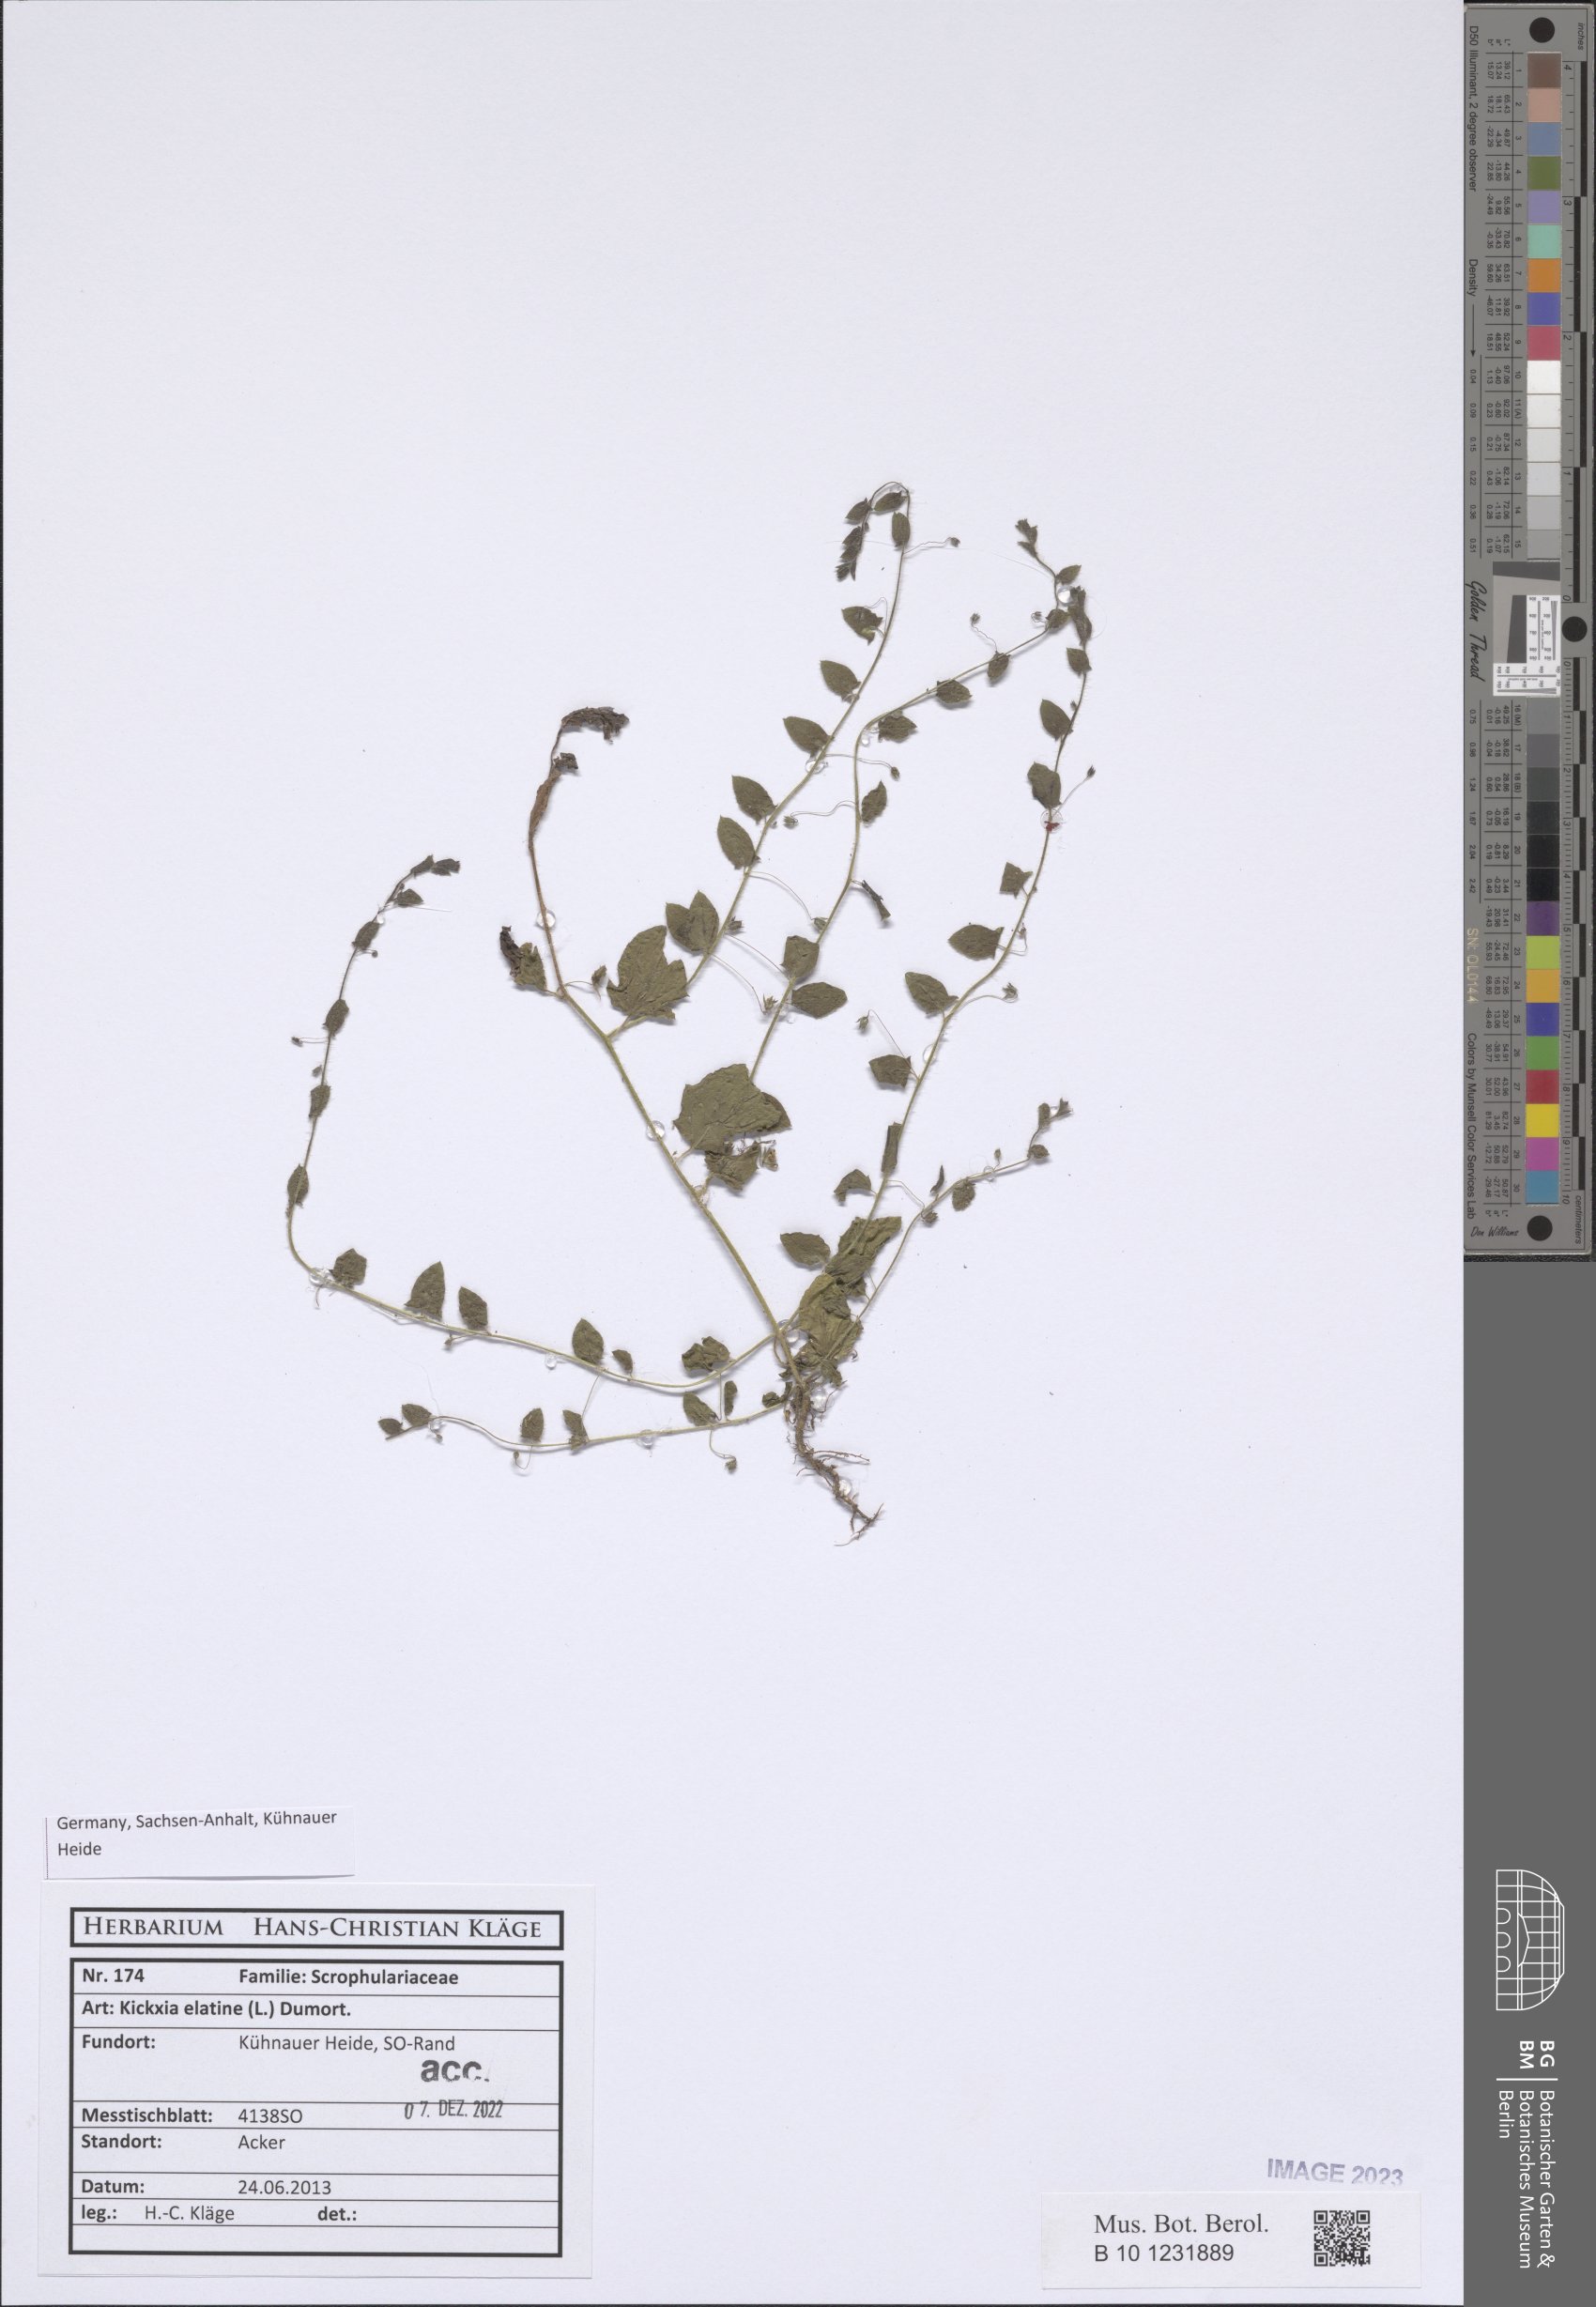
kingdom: Plantae
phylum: Tracheophyta
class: Magnoliopsida
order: Lamiales
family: Plantaginaceae
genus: Kickxia
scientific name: Kickxia elatine
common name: Sharp-leaved fluellen
